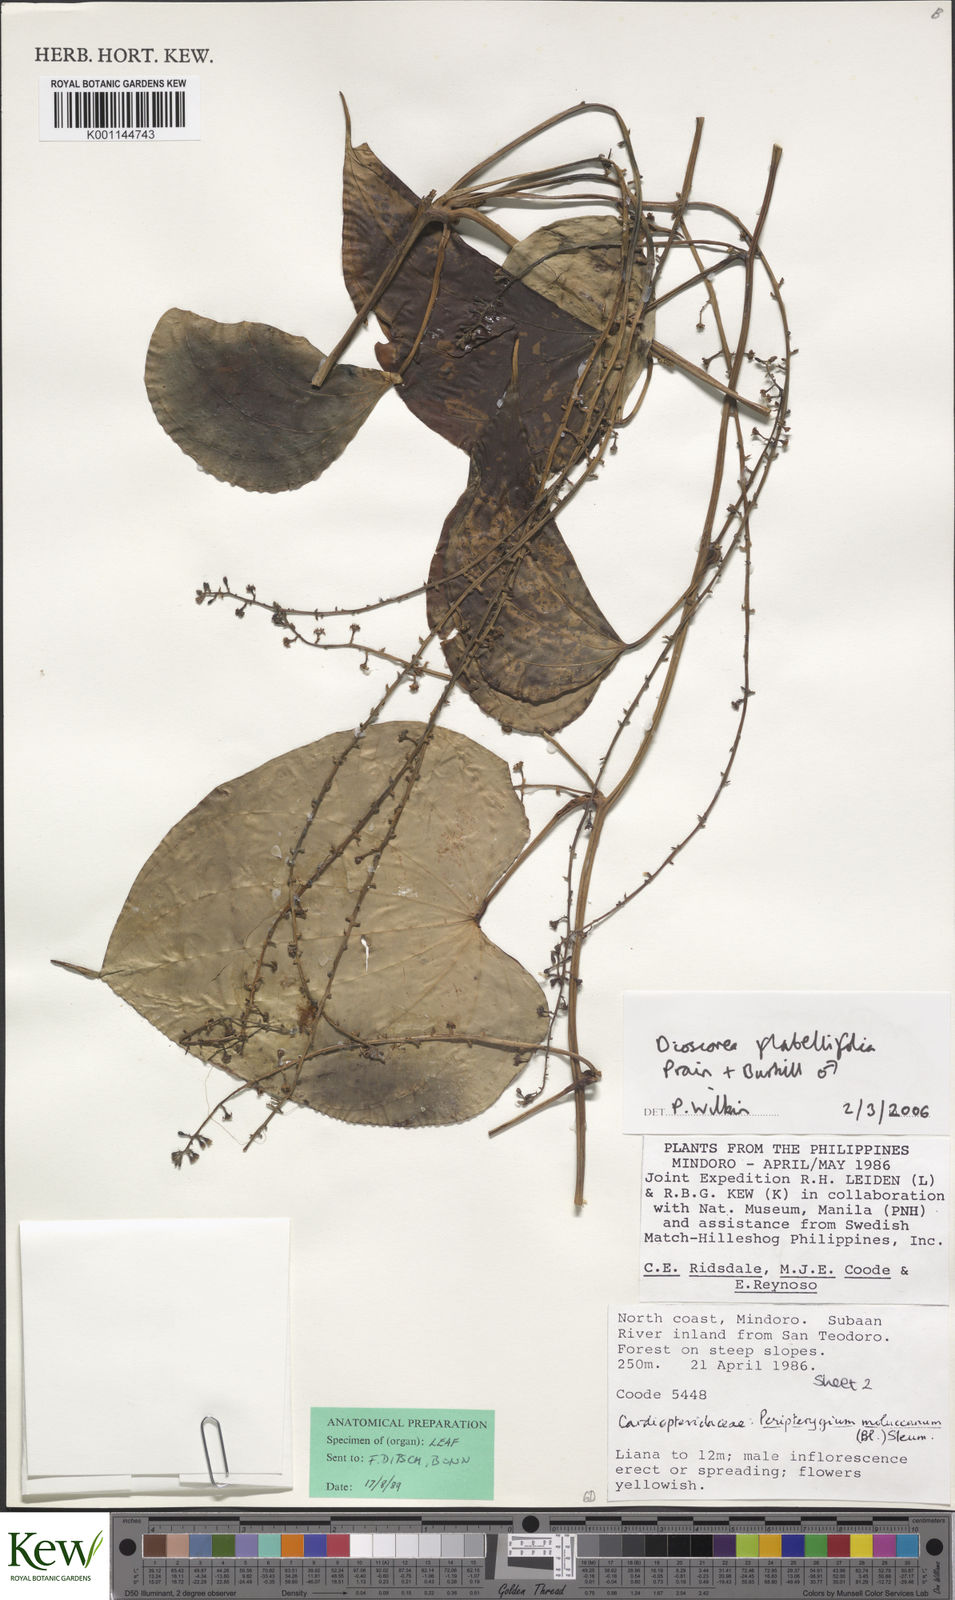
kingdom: Plantae
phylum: Tracheophyta
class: Liliopsida
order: Dioscoreales
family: Dioscoreaceae
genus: Dioscorea
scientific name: Dioscorea flabellifolia
